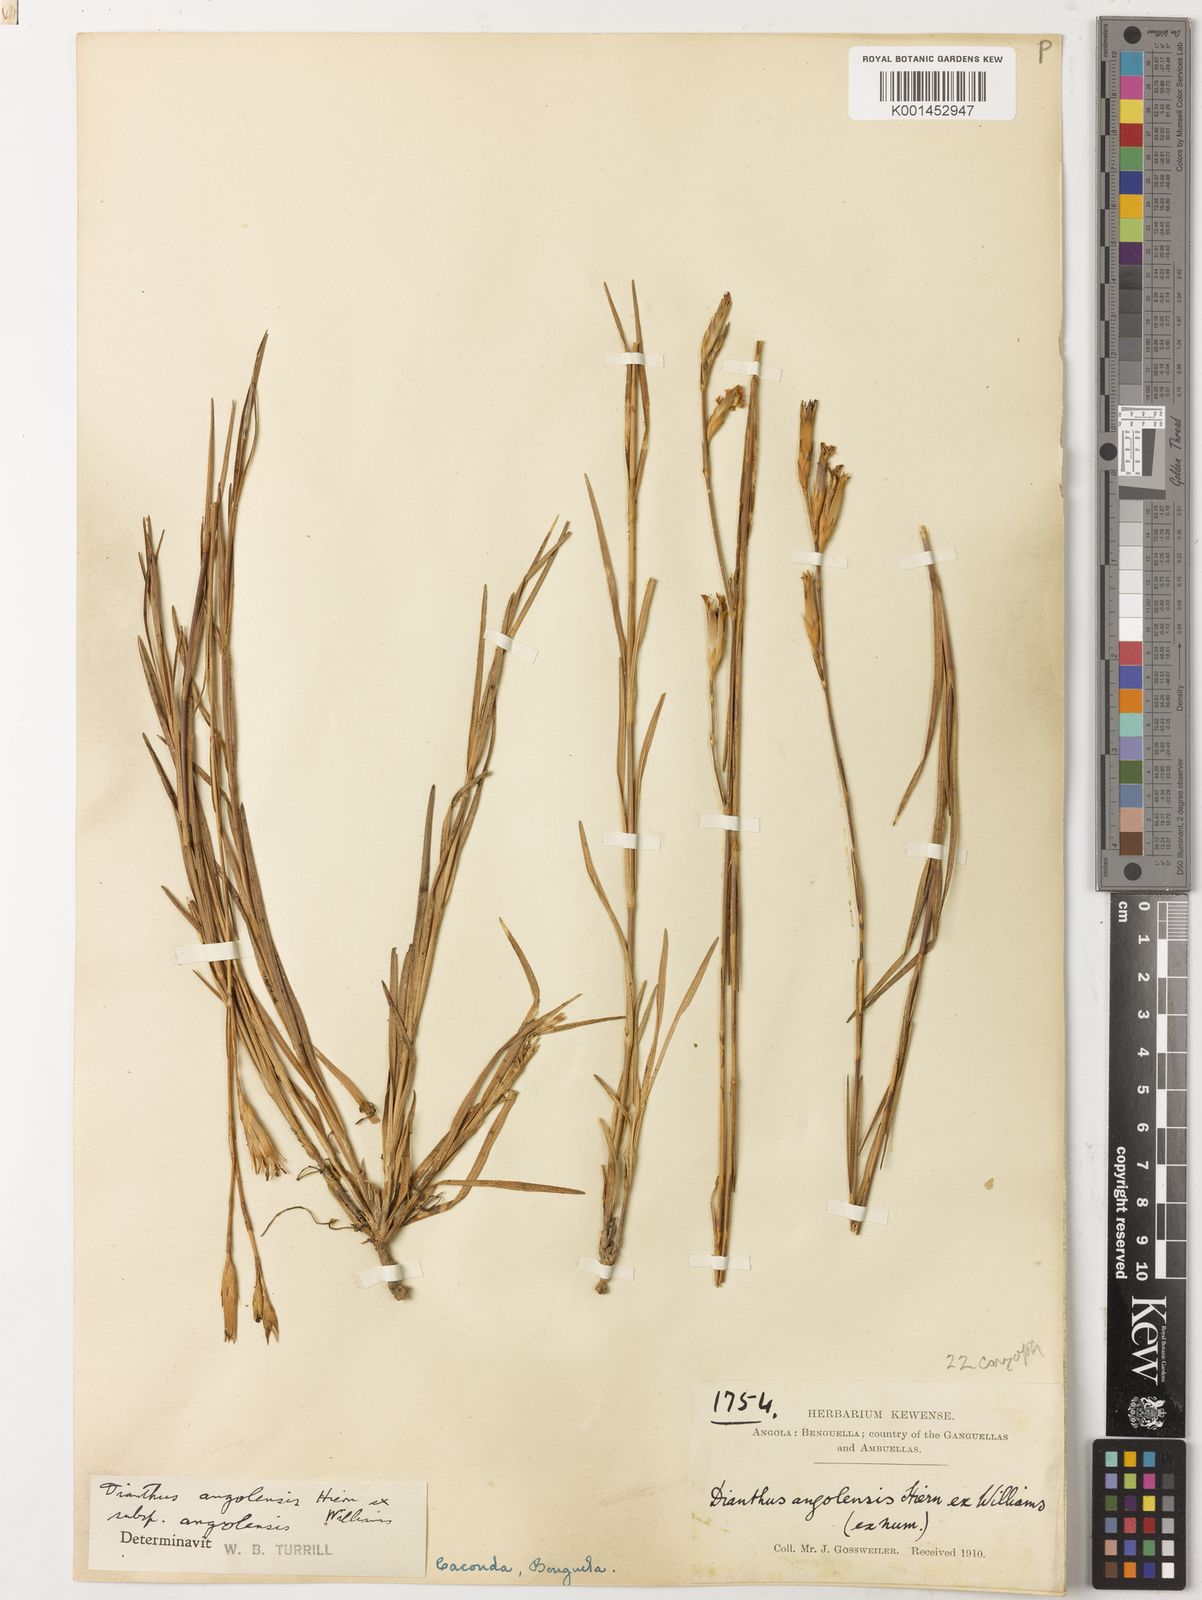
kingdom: Plantae
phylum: Tracheophyta
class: Magnoliopsida
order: Caryophyllales
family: Caryophyllaceae
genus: Dianthus
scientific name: Dianthus angolensis
